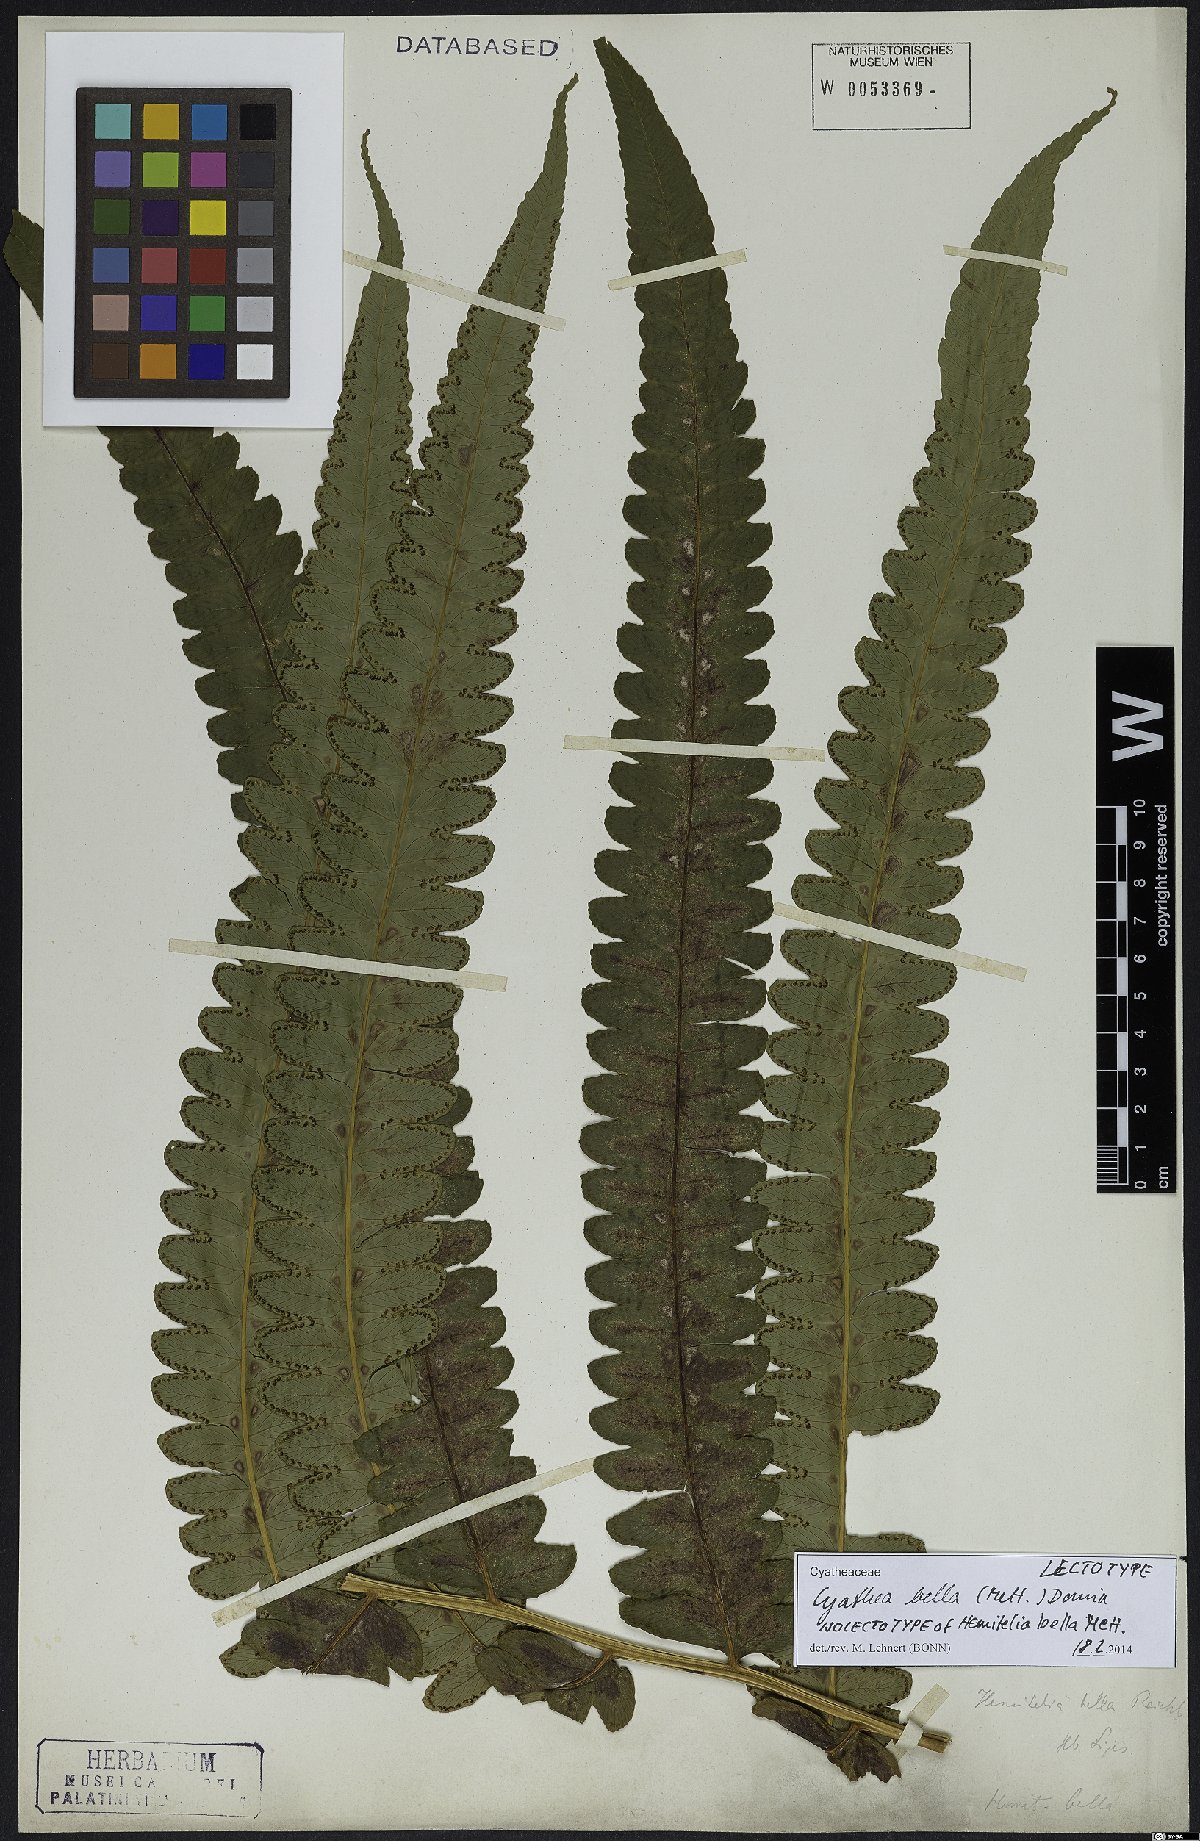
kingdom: Plantae
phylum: Tracheophyta
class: Polypodiopsida
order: Cyatheales
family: Cyatheaceae
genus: Cyathea
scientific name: Cyathea bella
